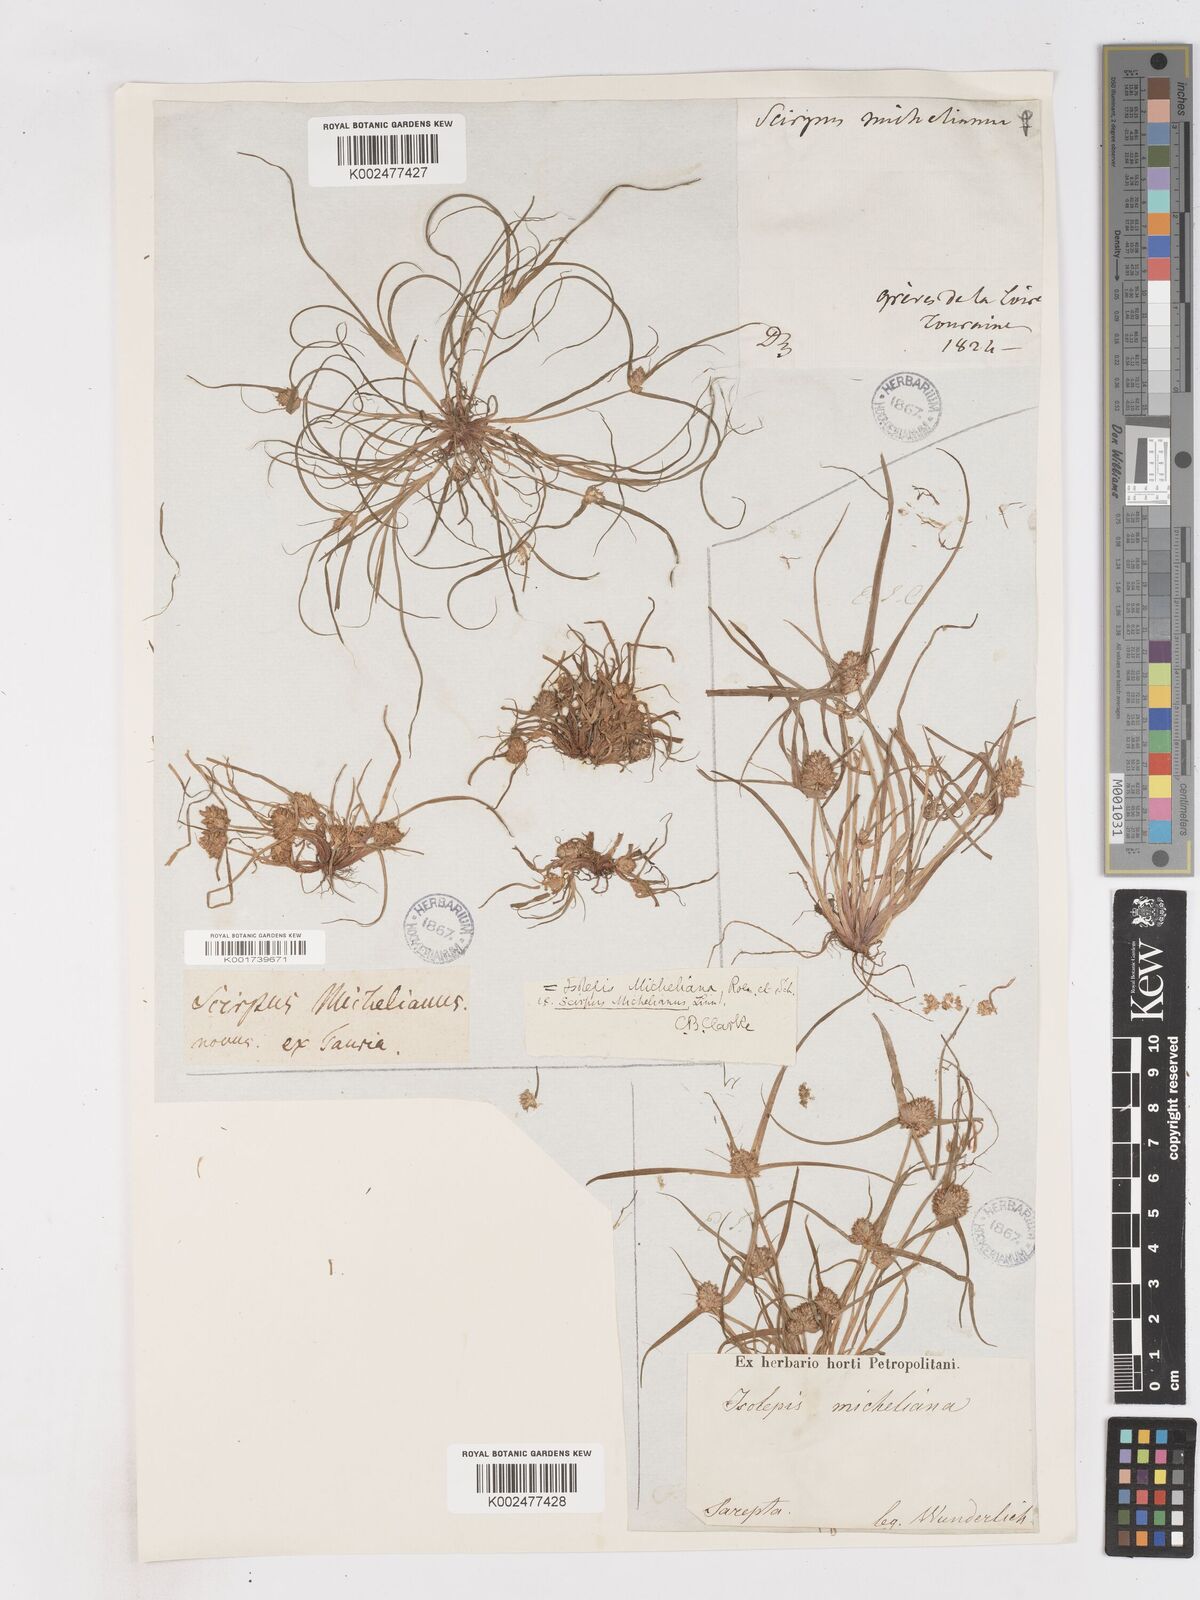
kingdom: Plantae
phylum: Tracheophyta
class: Liliopsida
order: Poales
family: Cyperaceae
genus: Cyperus
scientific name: Cyperus michelianus
